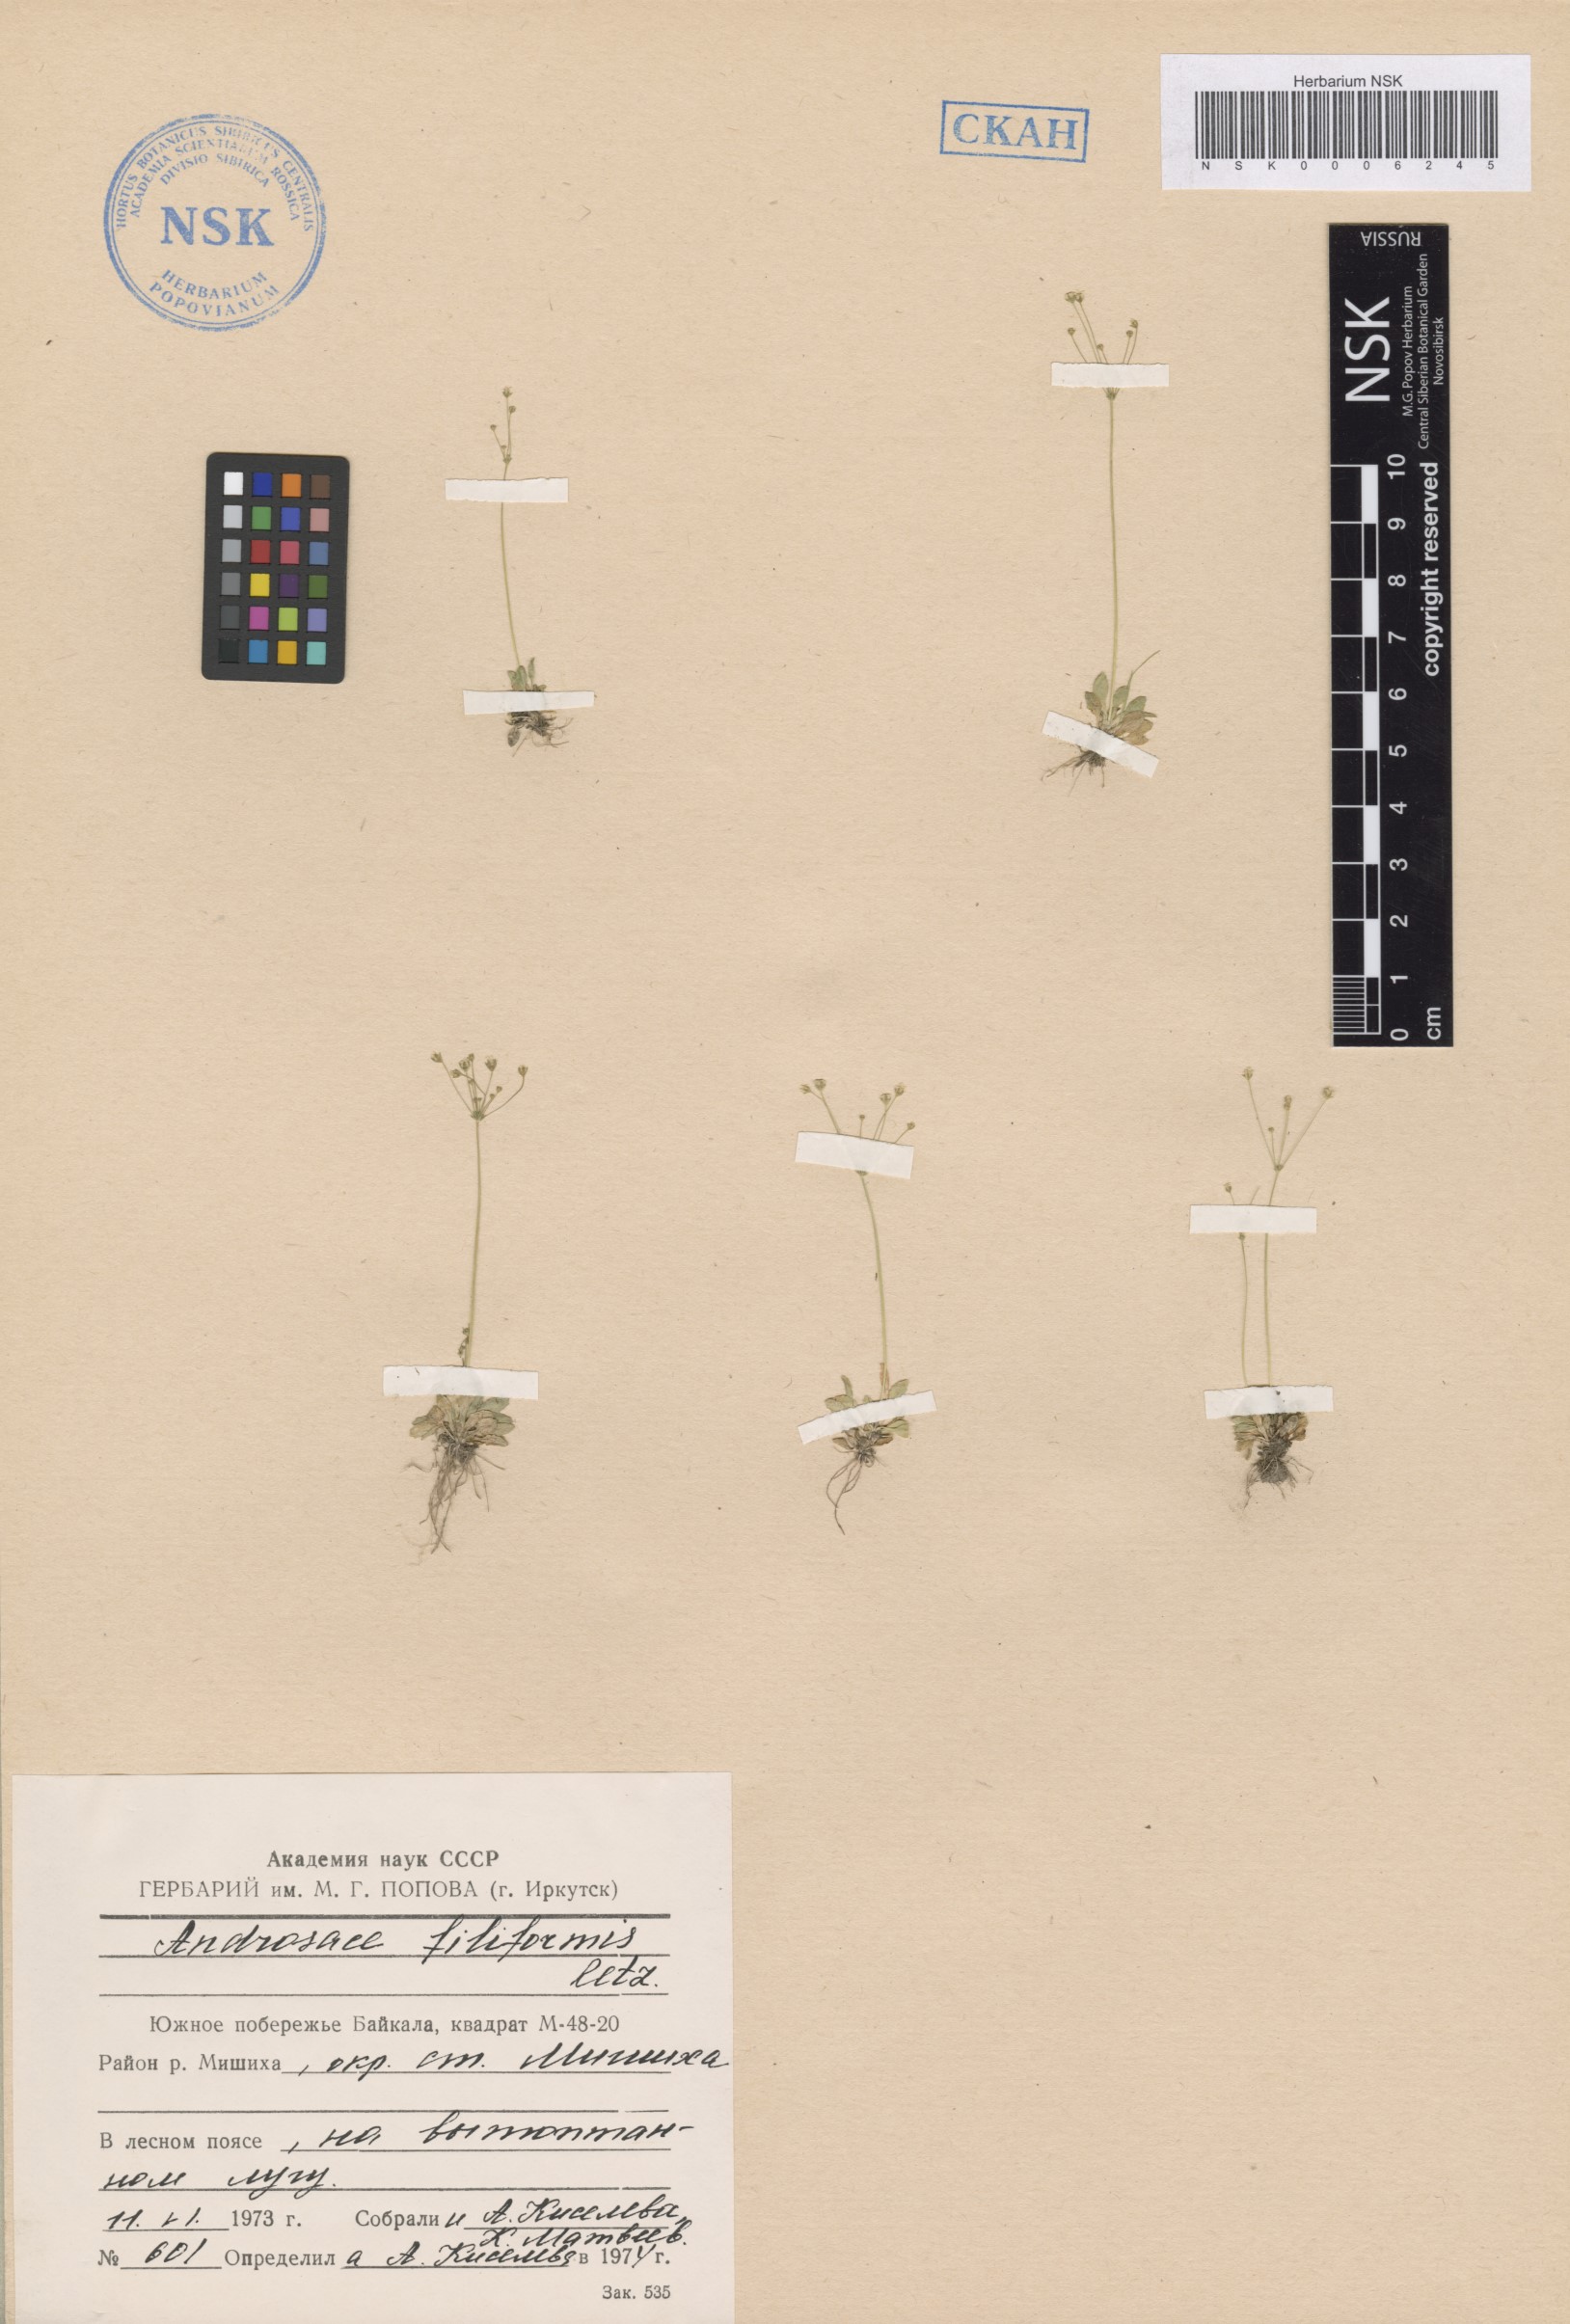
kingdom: Plantae
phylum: Tracheophyta
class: Magnoliopsida
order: Ericales
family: Primulaceae
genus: Androsace
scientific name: Androsace filiformis
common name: Filiform rock jasmine
